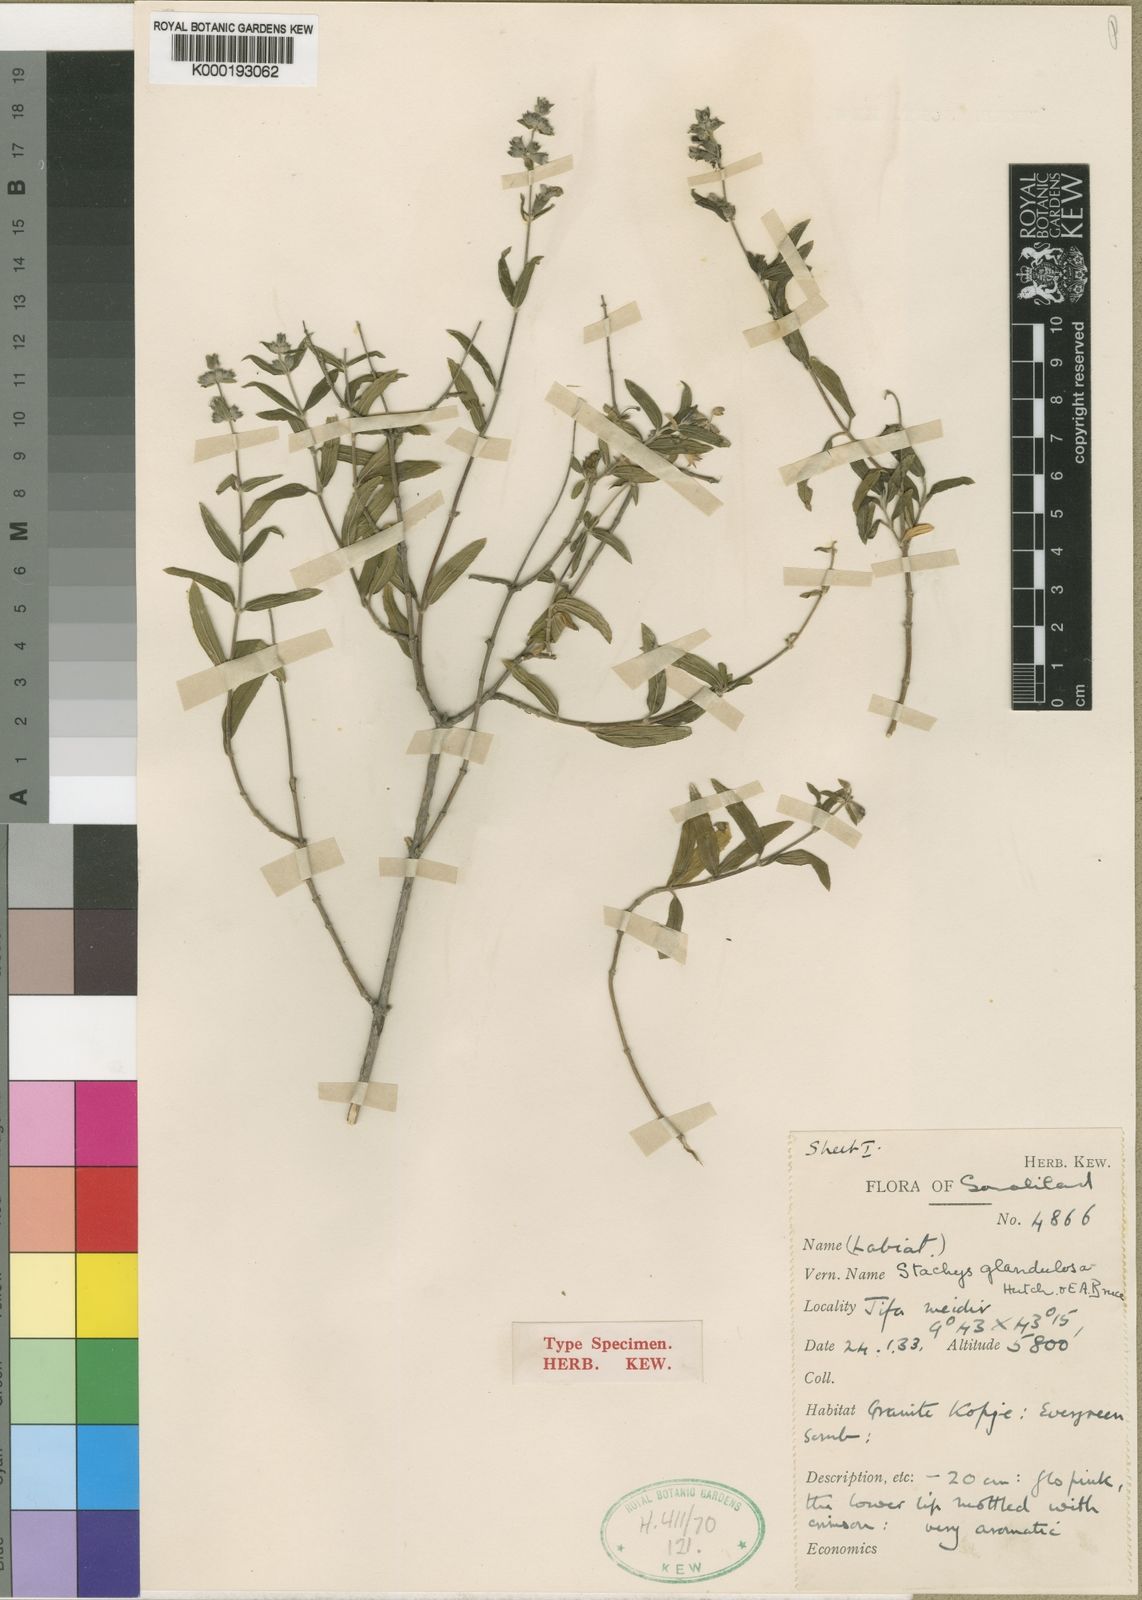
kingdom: Plantae
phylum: Tracheophyta
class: Magnoliopsida
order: Lamiales
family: Lamiaceae
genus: Stachys
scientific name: Stachys glandulosa
